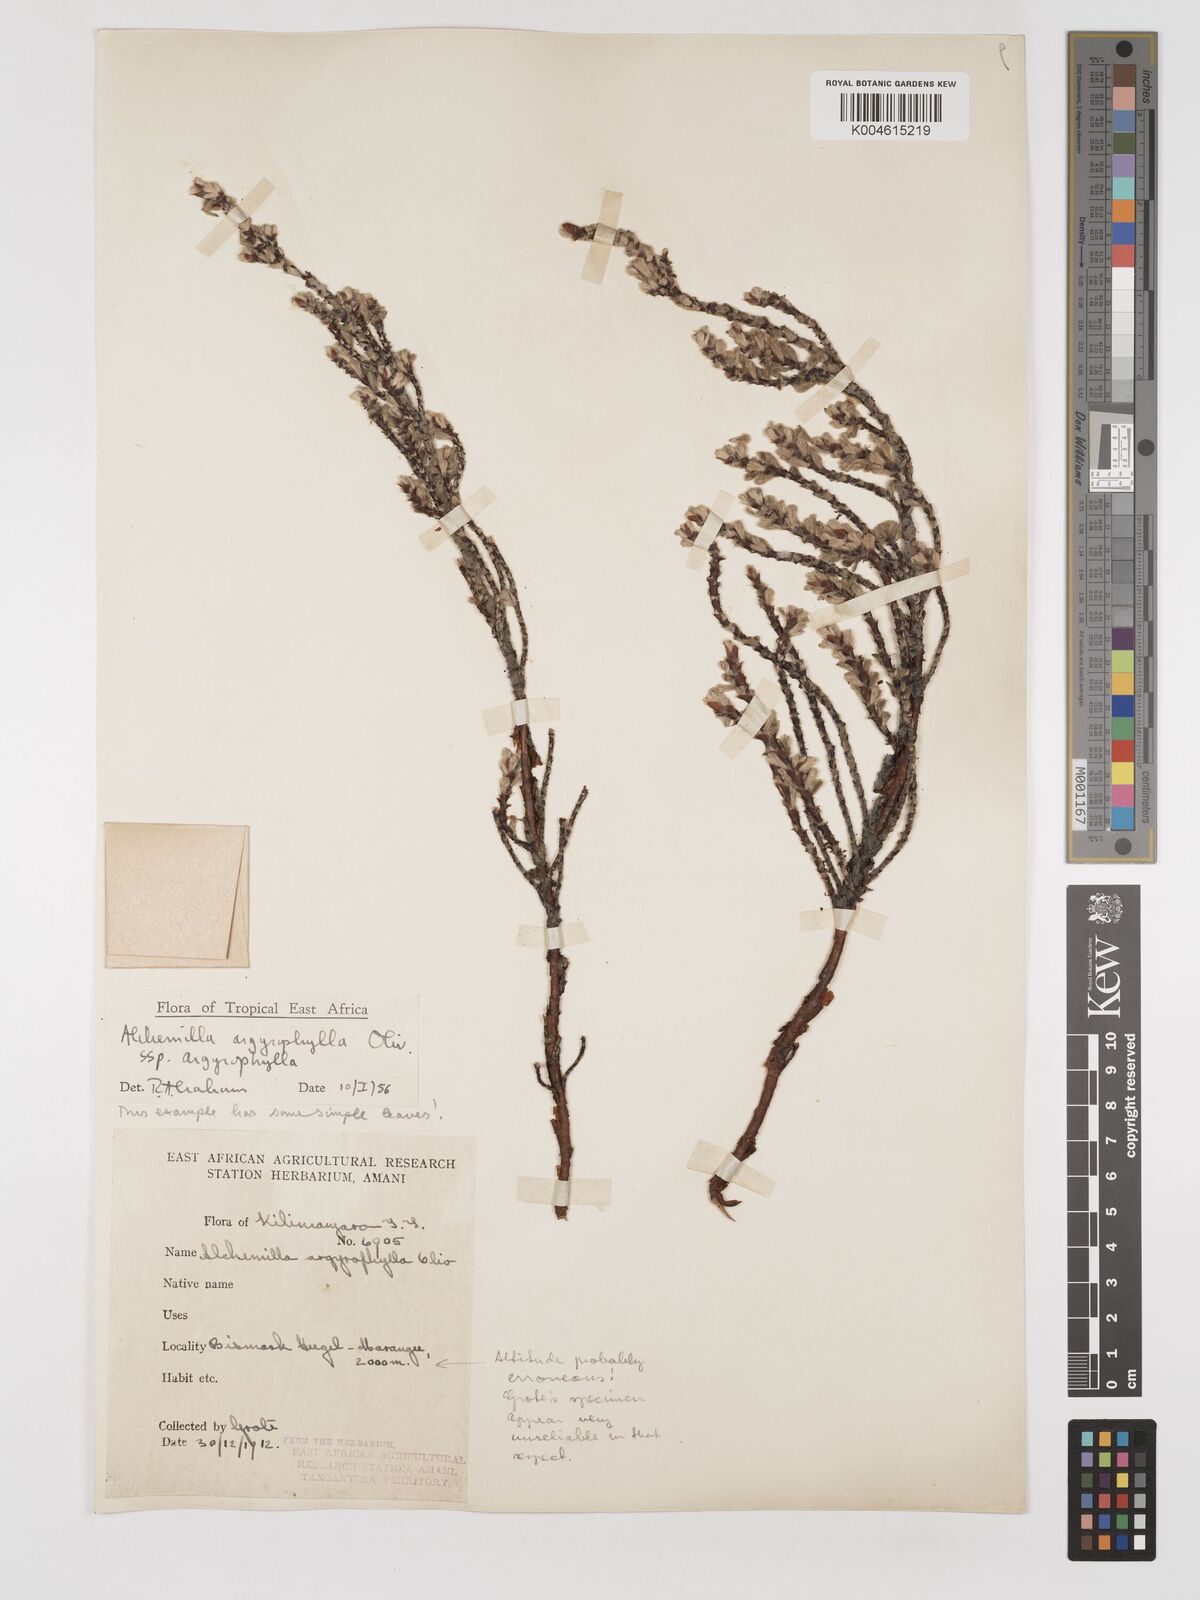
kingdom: Plantae
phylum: Tracheophyta
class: Magnoliopsida
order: Rosales
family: Rosaceae
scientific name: Rosaceae
